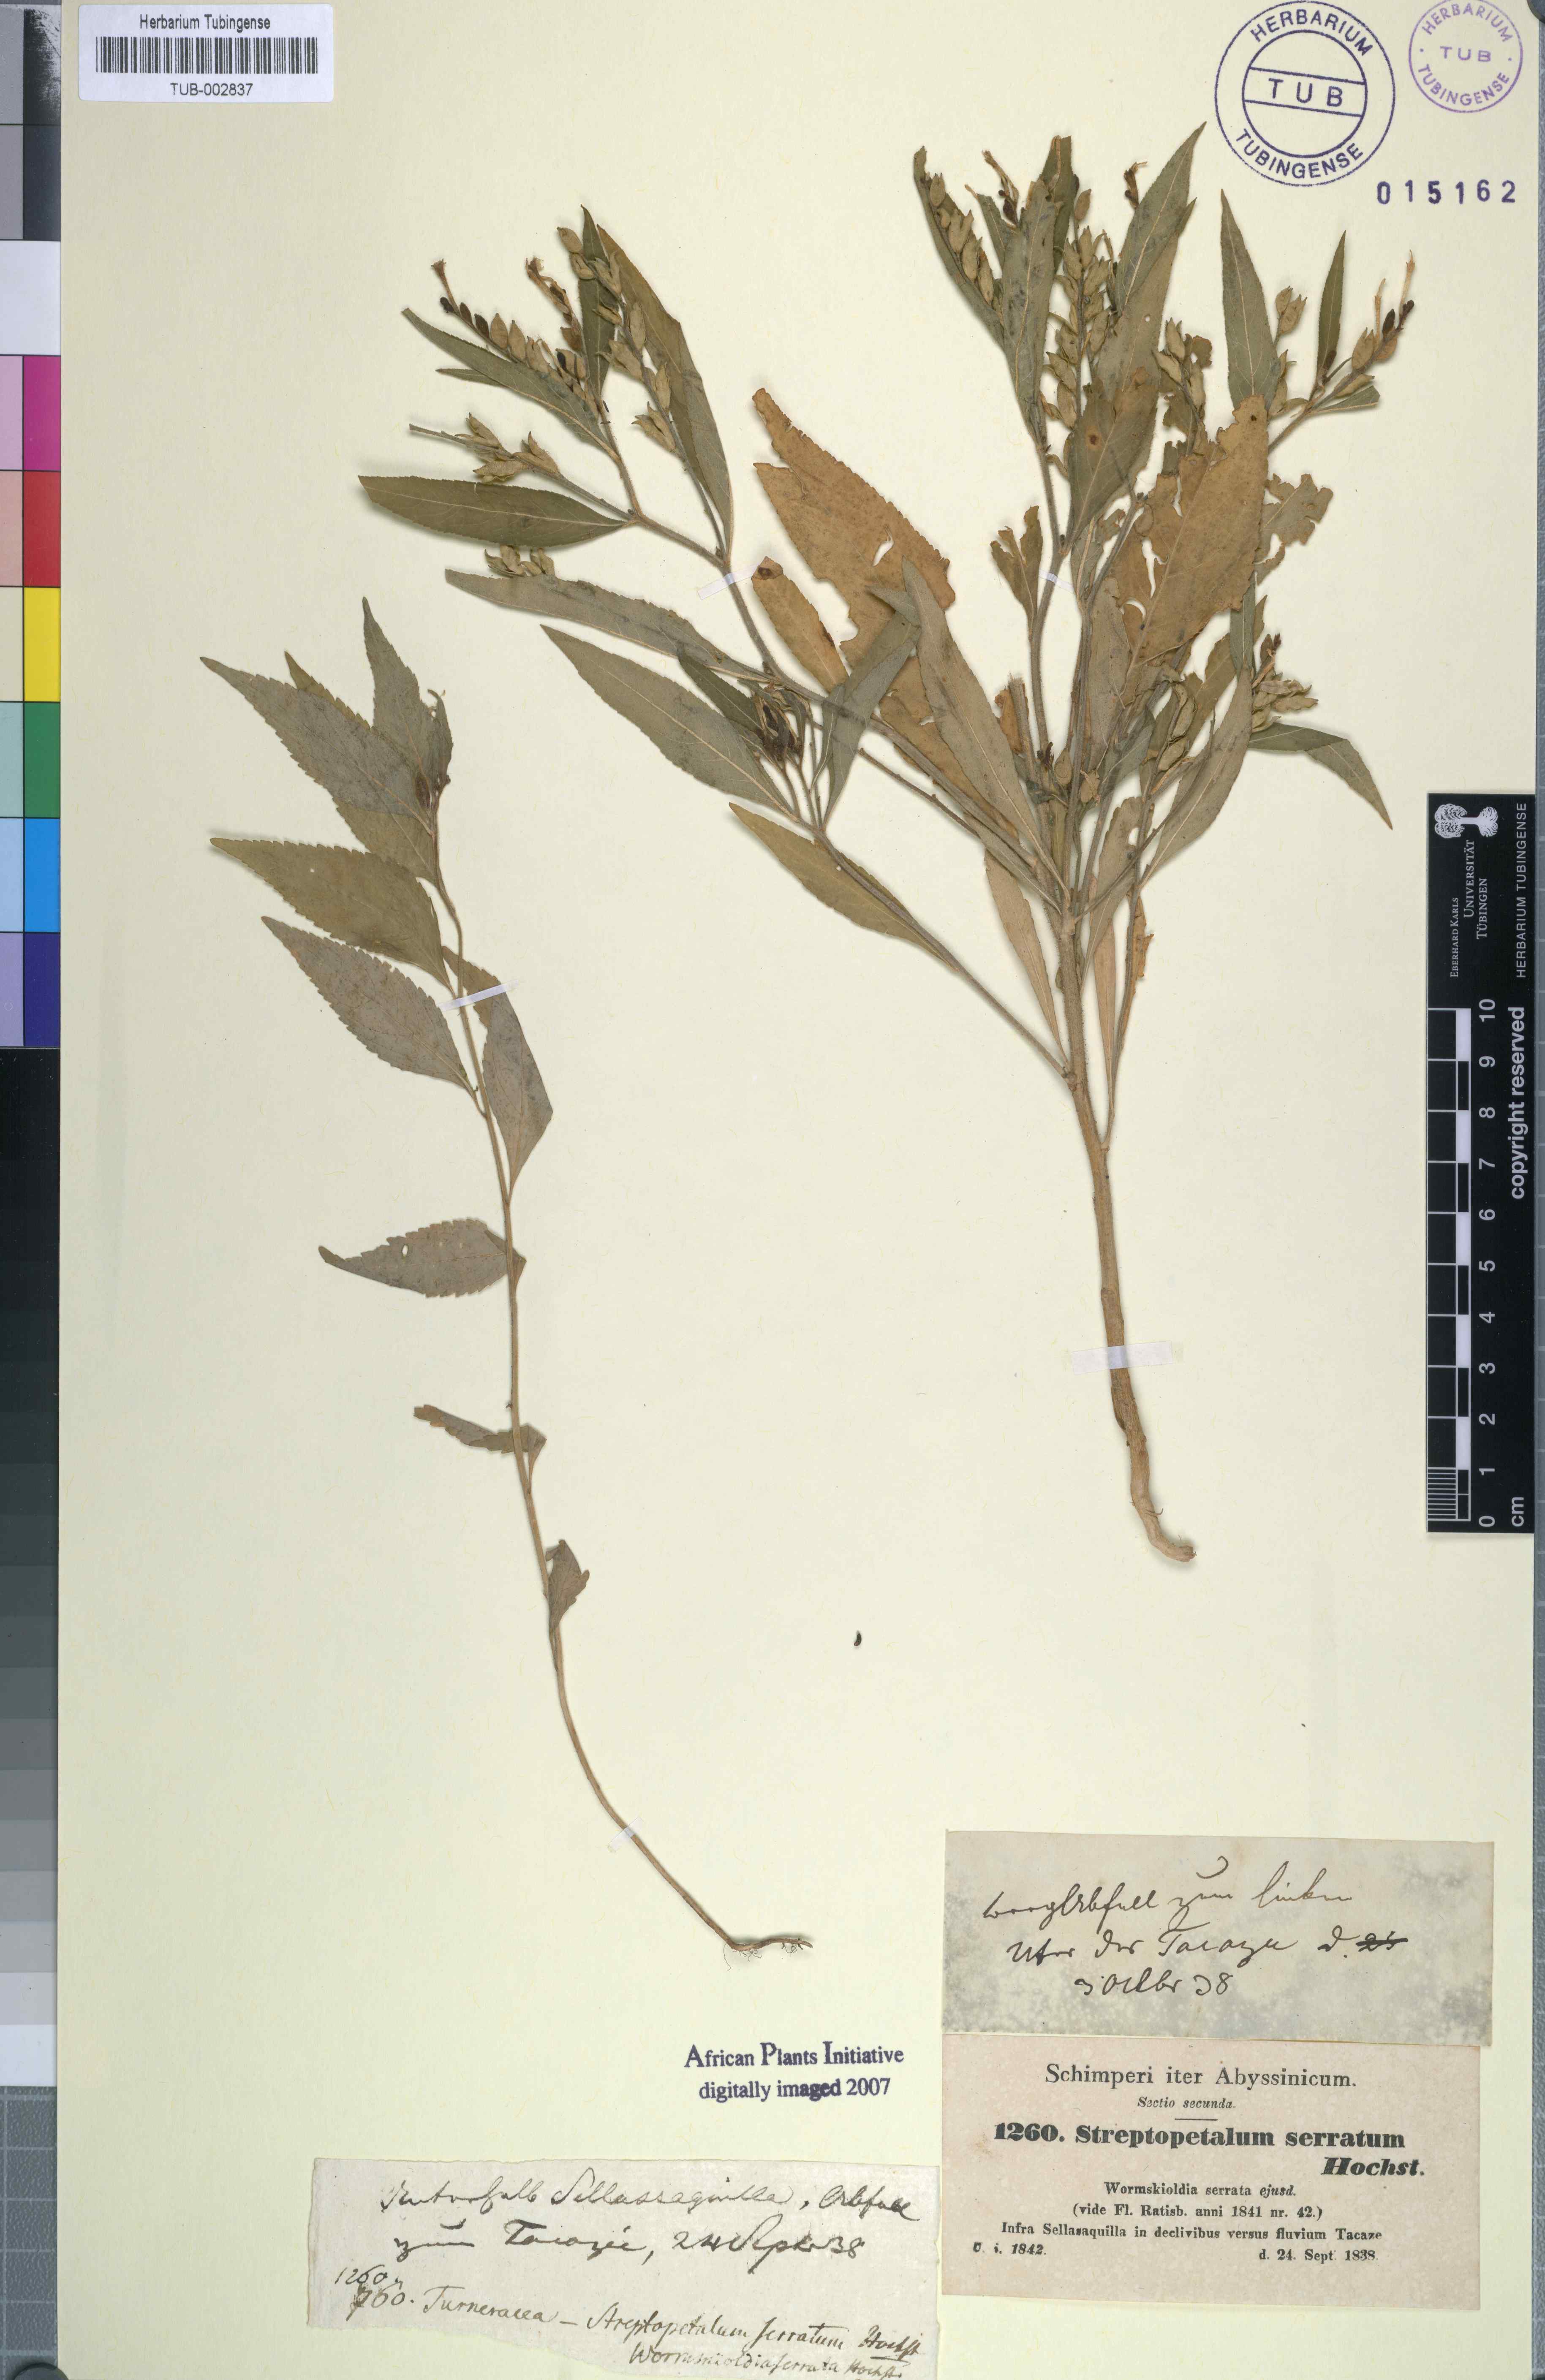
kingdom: Plantae
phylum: Tracheophyta
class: Magnoliopsida
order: Malpighiales
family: Turneraceae
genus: Streptopetalum
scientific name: Streptopetalum serratum
